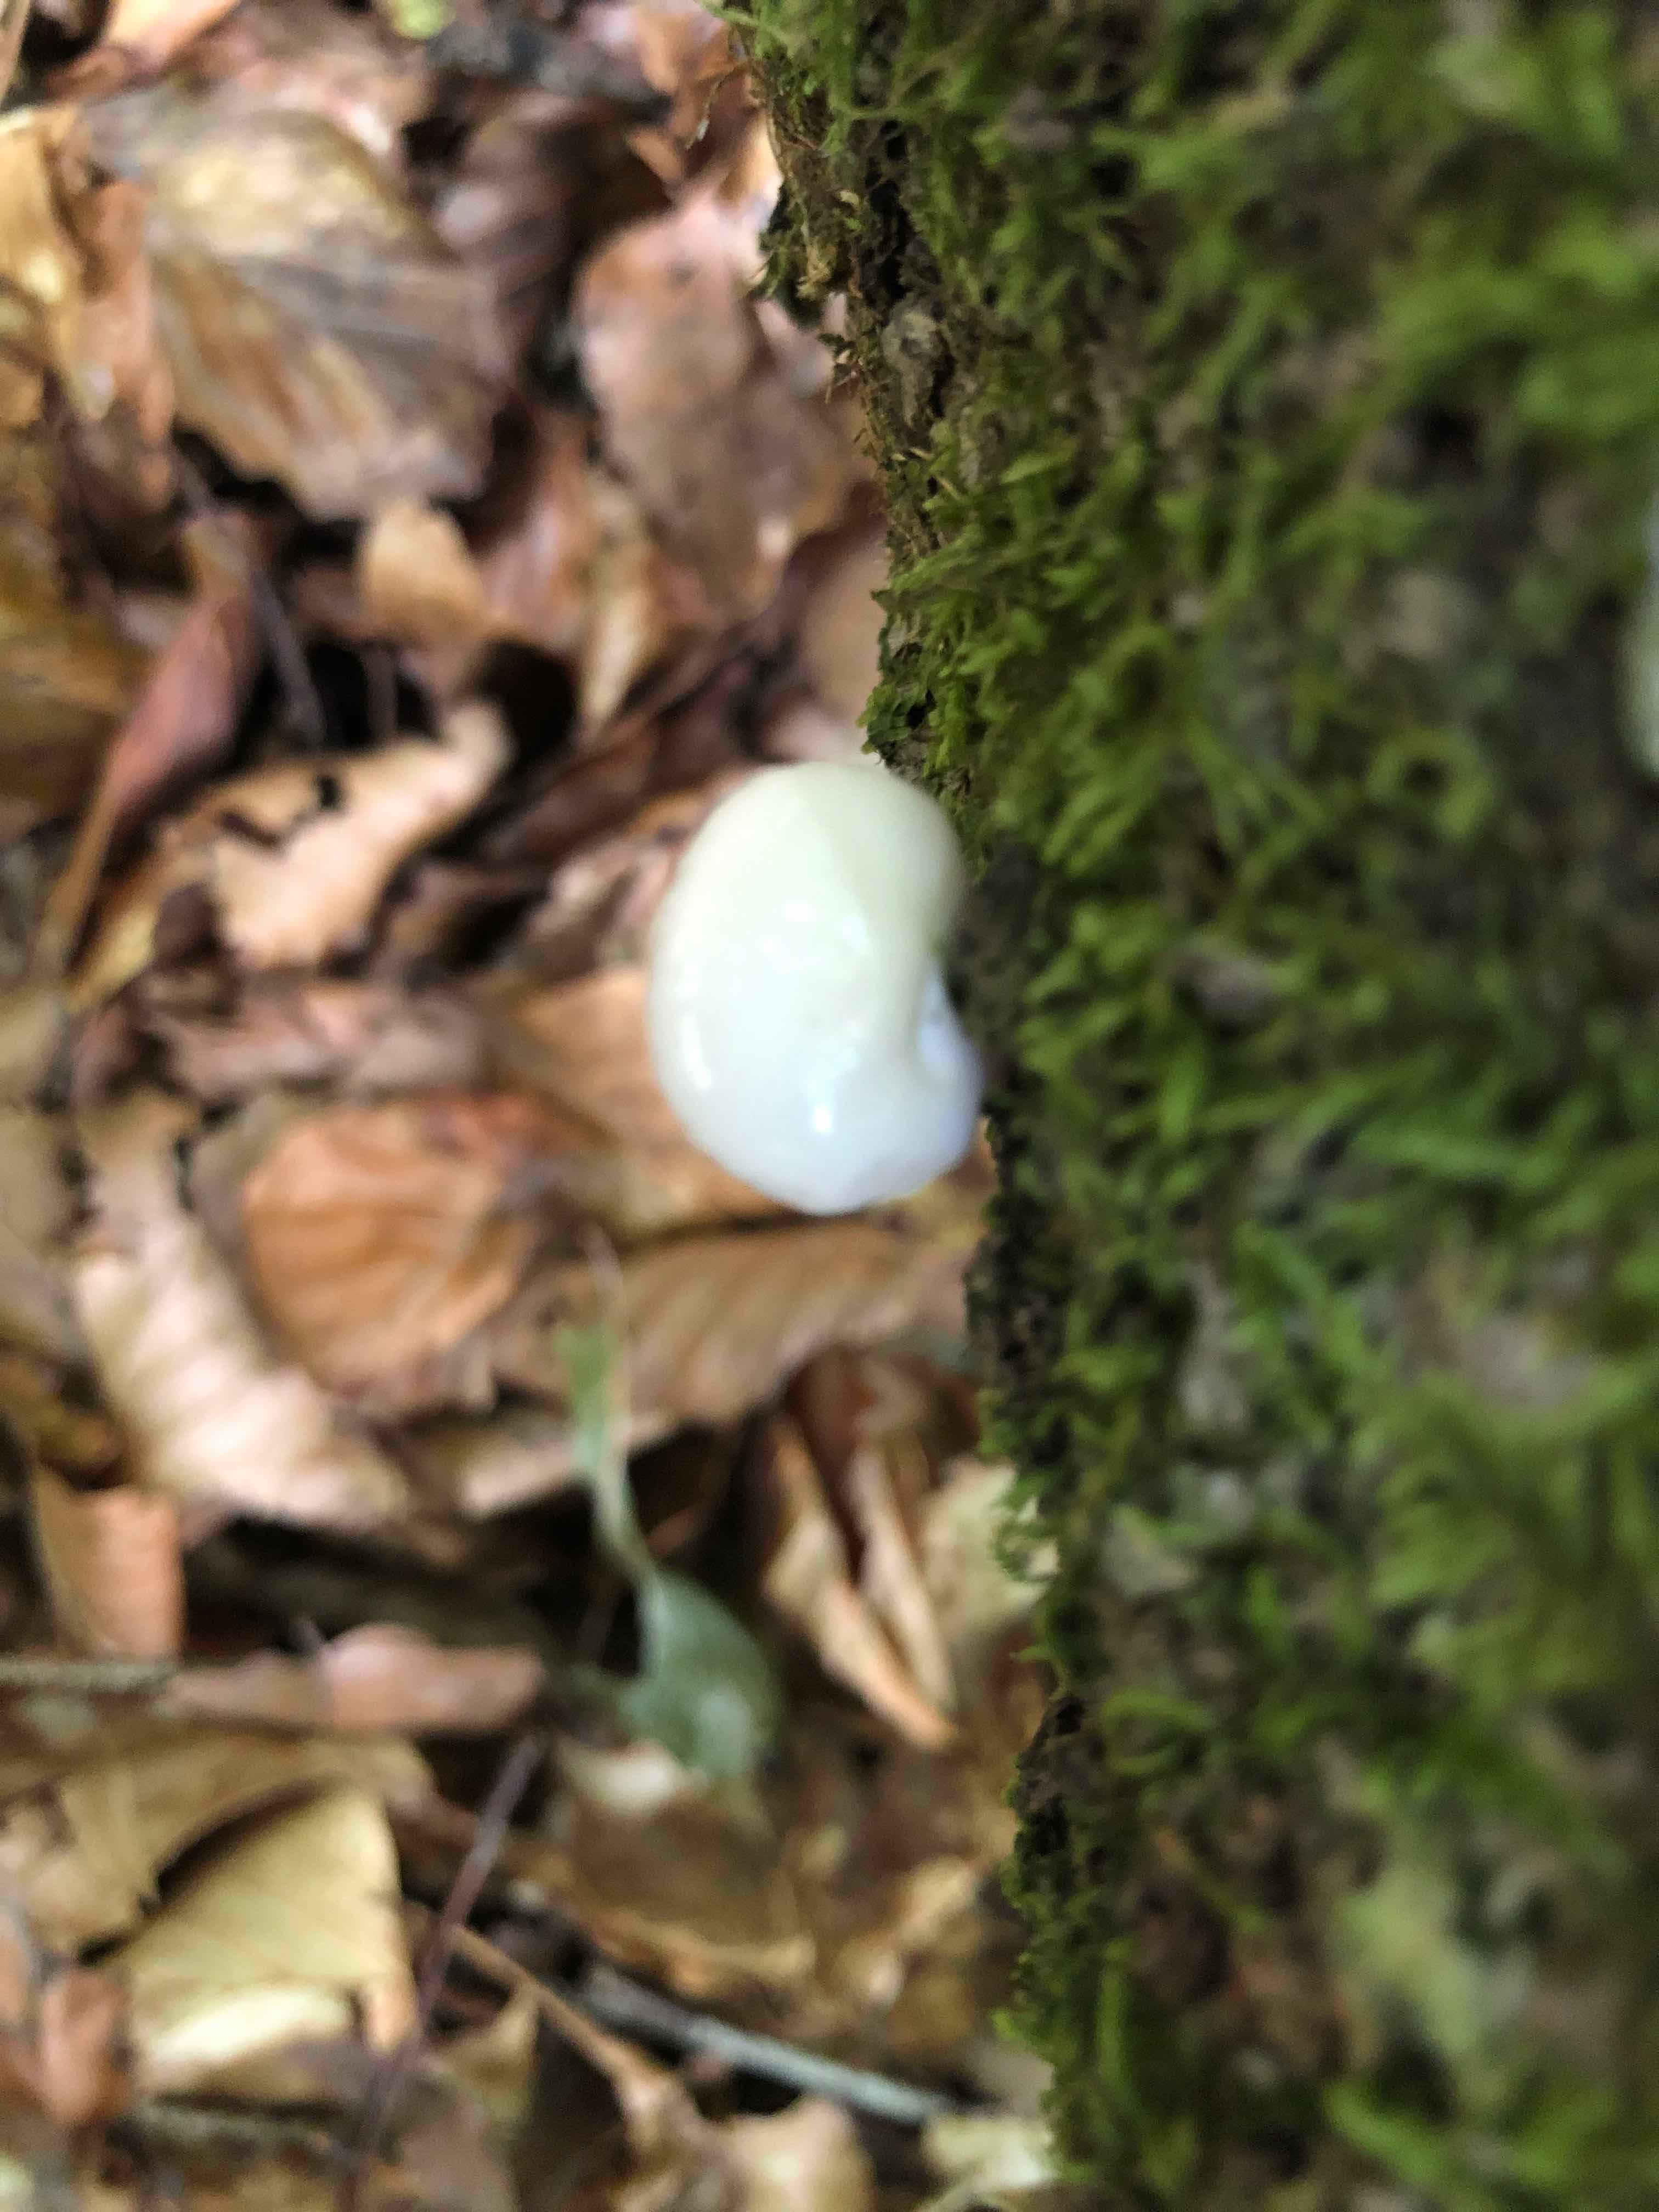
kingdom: Fungi
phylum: Basidiomycota
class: Agaricomycetes
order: Agaricales
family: Physalacriaceae
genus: Mucidula
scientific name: Mucidula mucida
